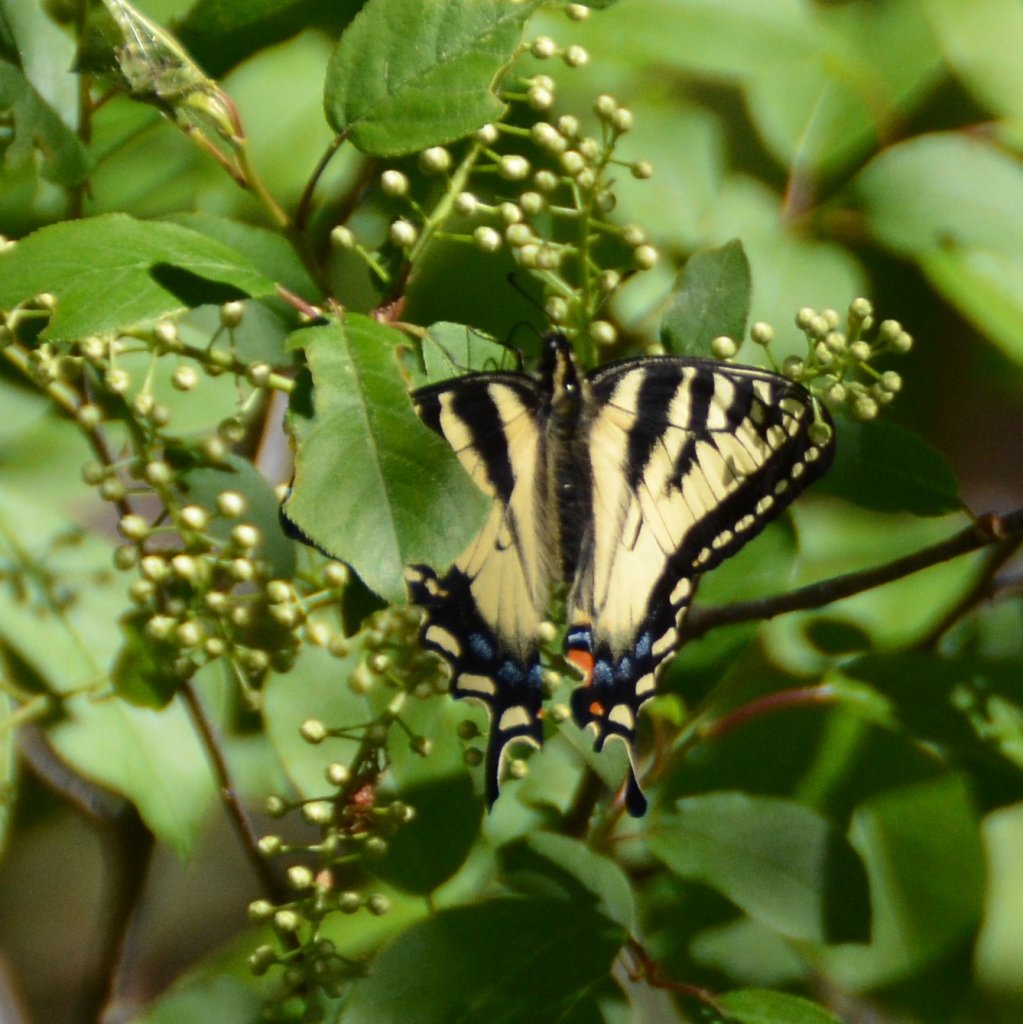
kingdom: Animalia
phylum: Arthropoda
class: Insecta
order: Lepidoptera
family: Papilionidae
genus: Pterourus
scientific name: Pterourus canadensis
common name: Canadian Tiger Swallowtail
